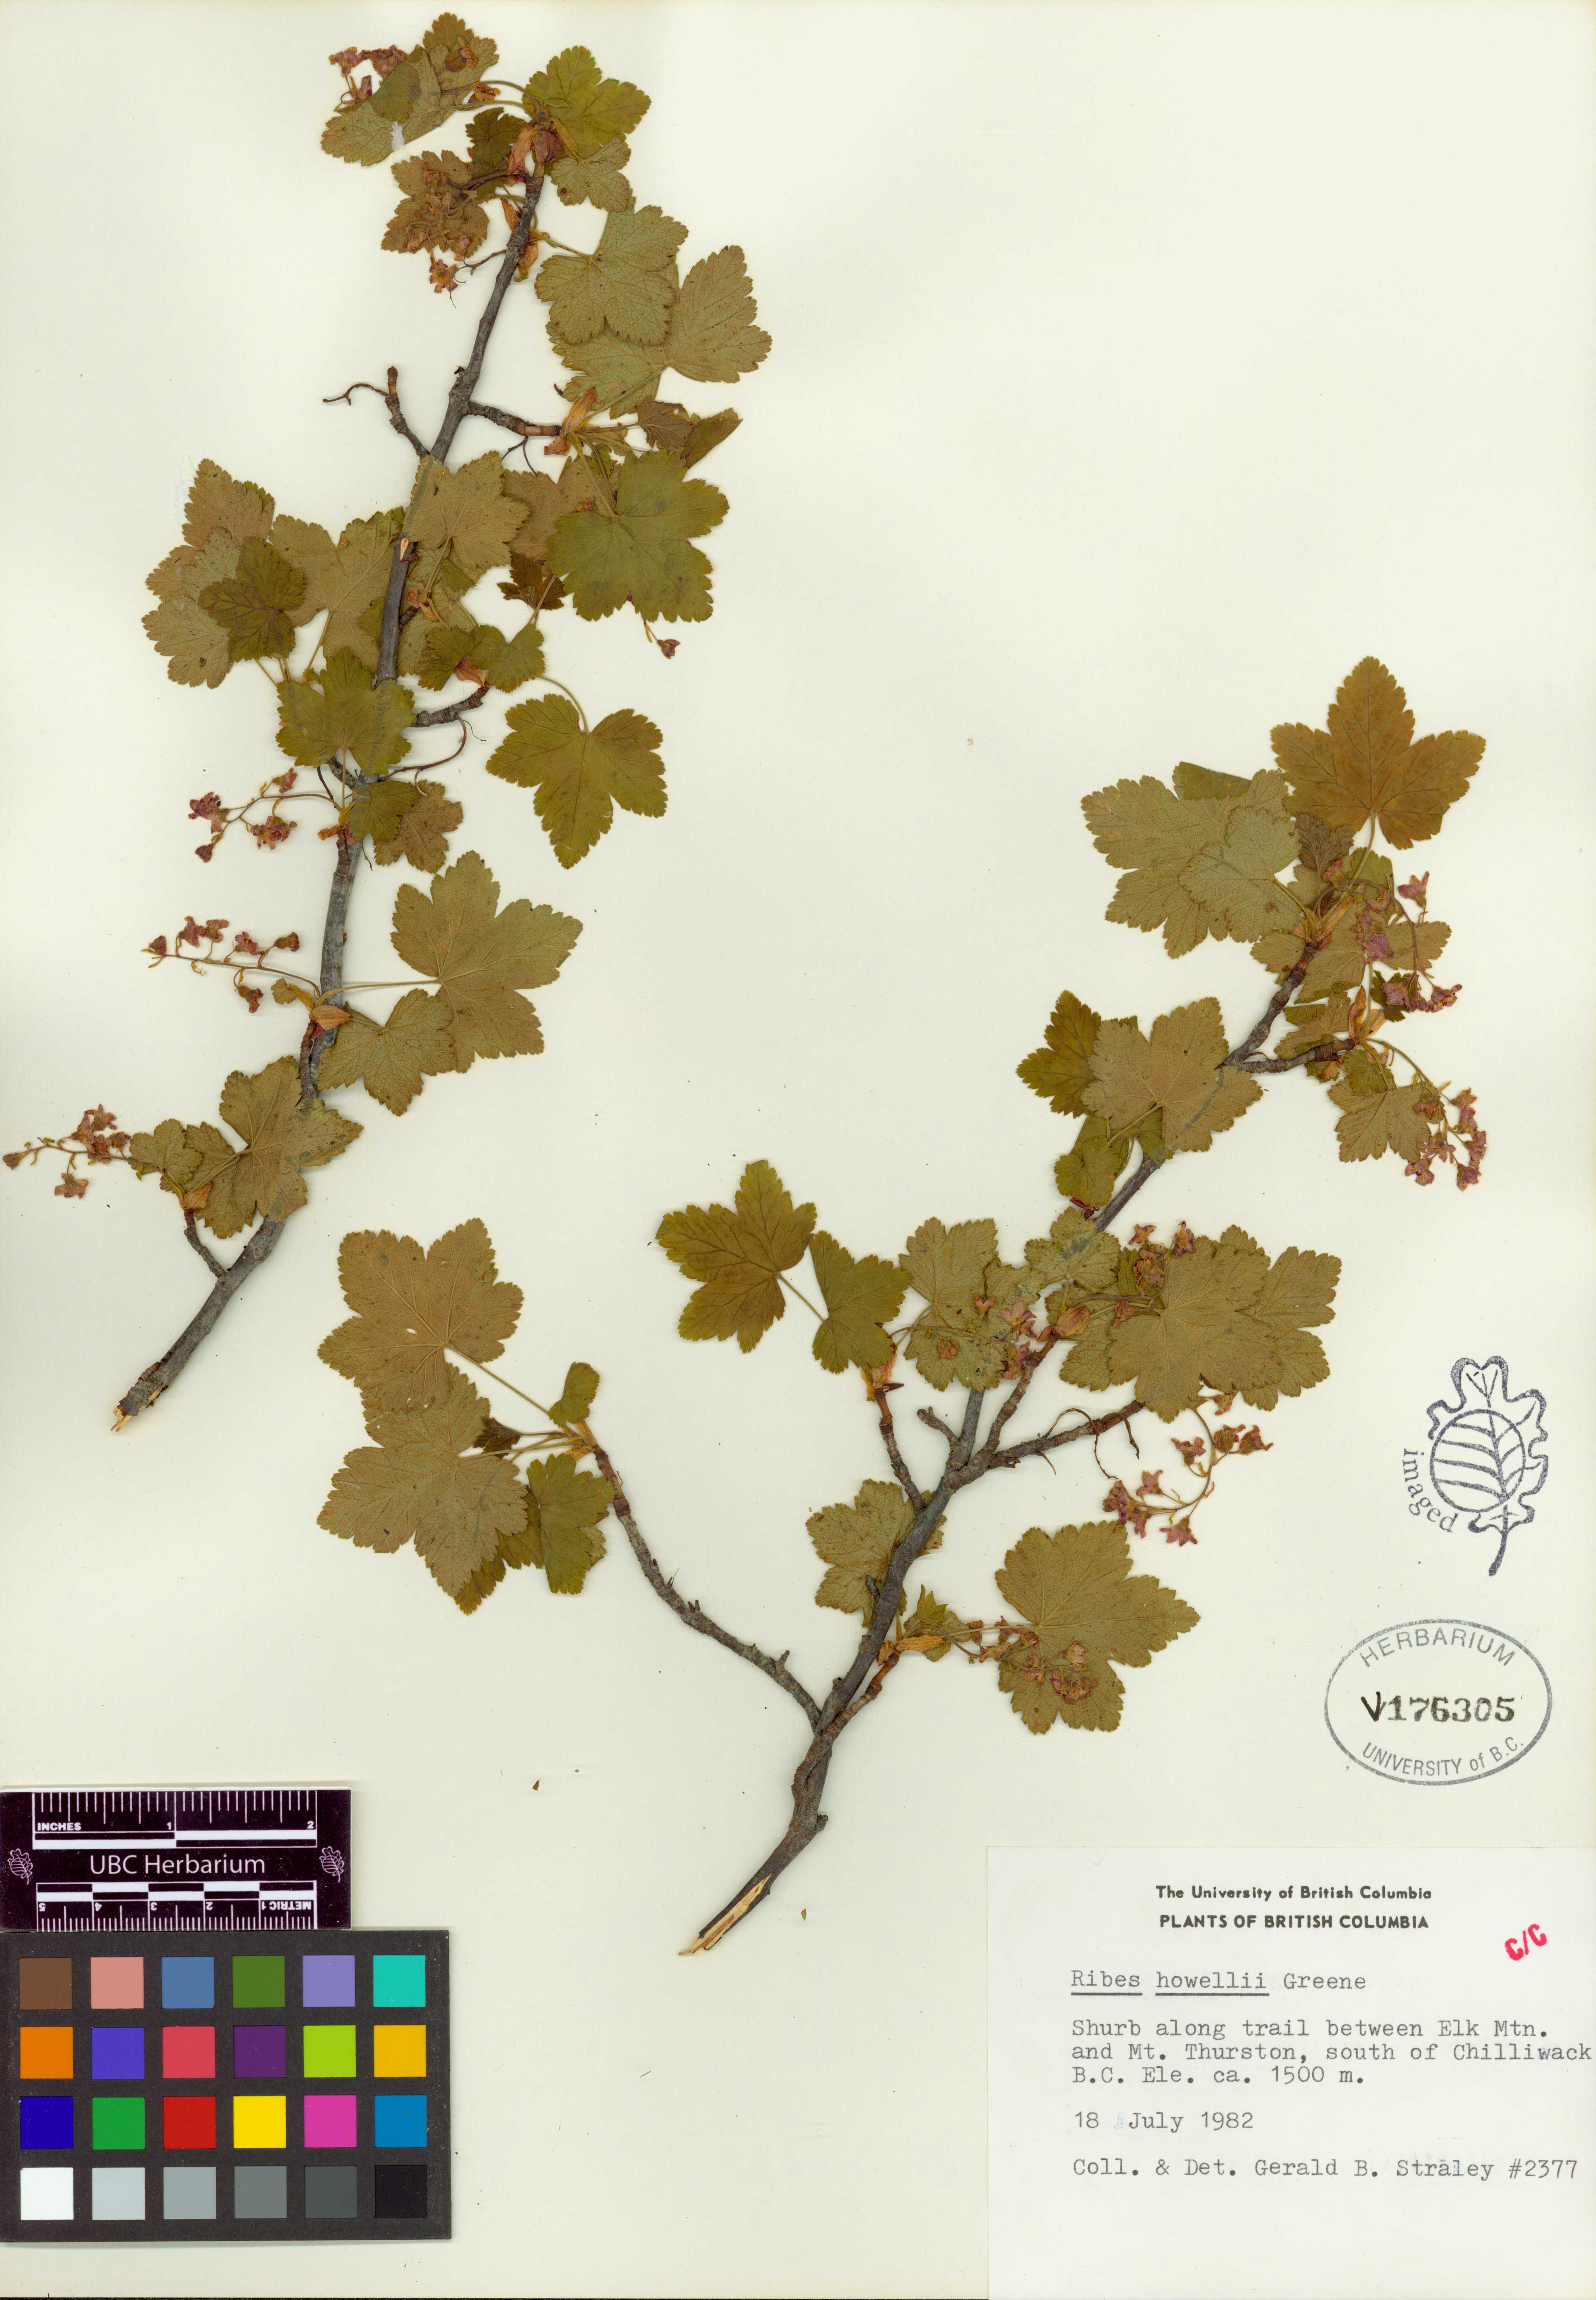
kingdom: Plantae
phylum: Tracheophyta
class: Magnoliopsida
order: Saxifragales
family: Grossulariaceae
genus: Ribes
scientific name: Ribes acerifolium
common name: Maple-leaved black currant
